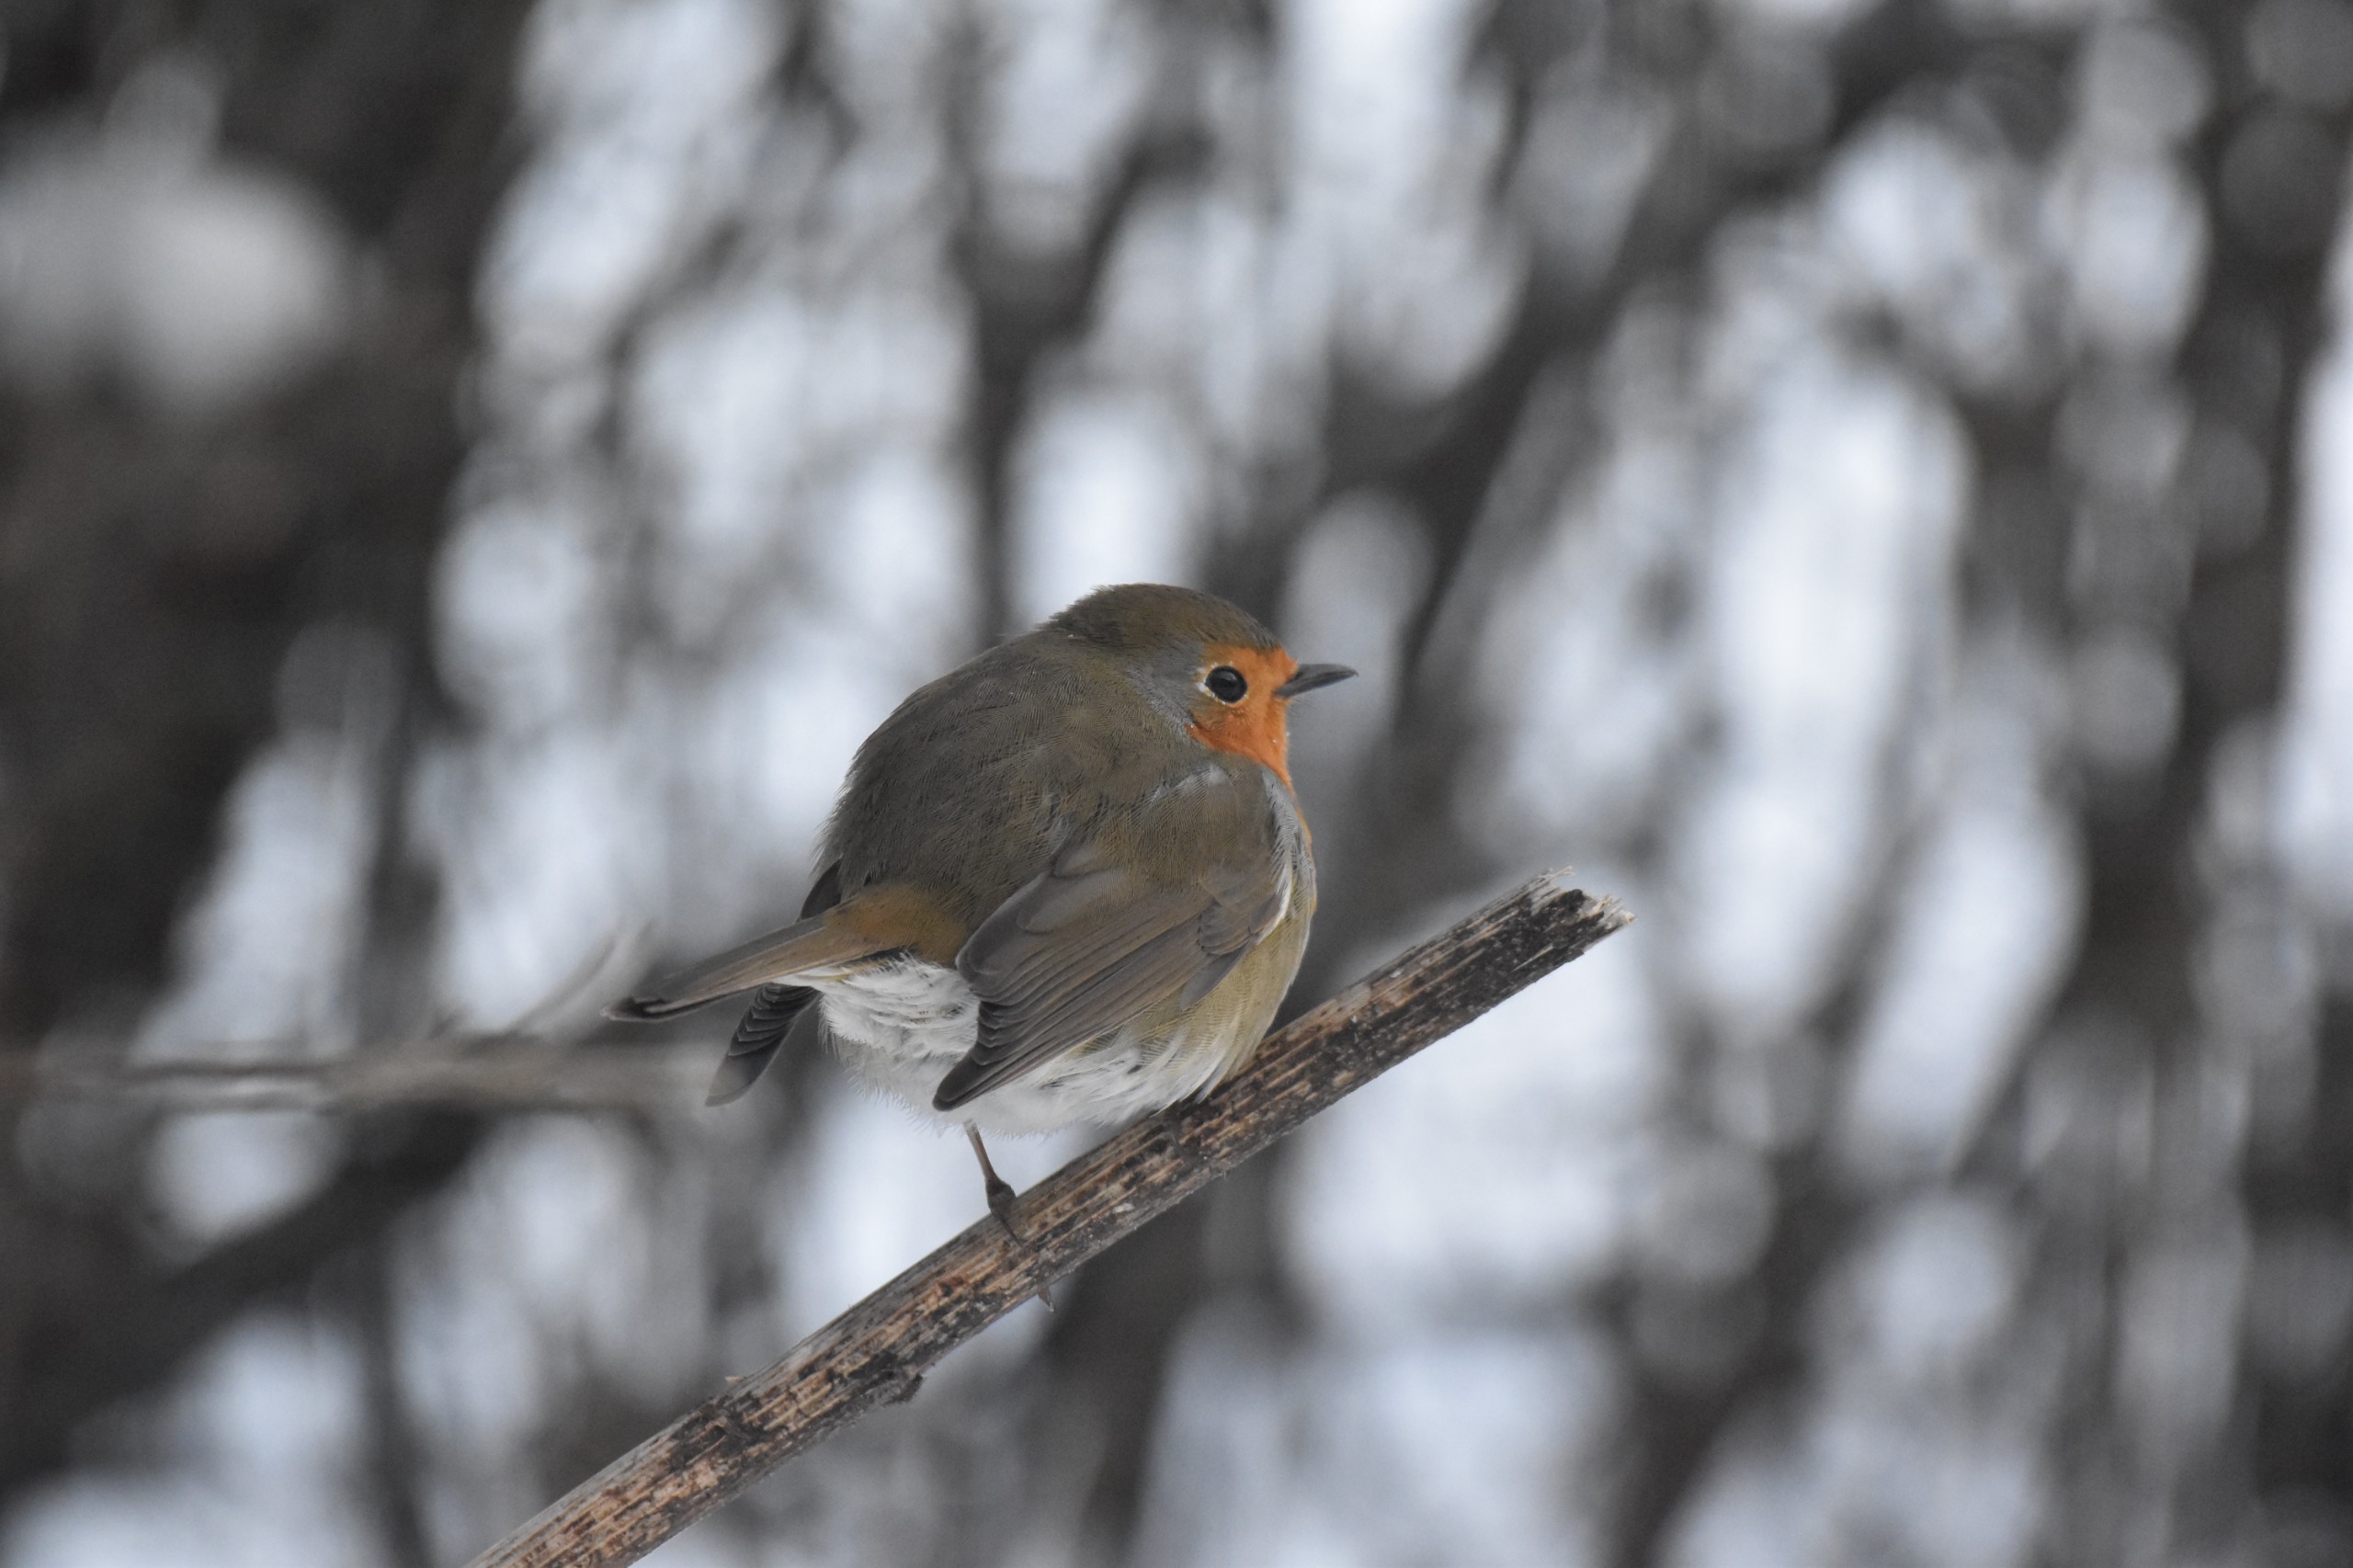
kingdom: Animalia
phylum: Chordata
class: Aves
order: Passeriformes
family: Muscicapidae
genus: Erithacus
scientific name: Erithacus rubecula
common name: Rødhals/rødkælk
